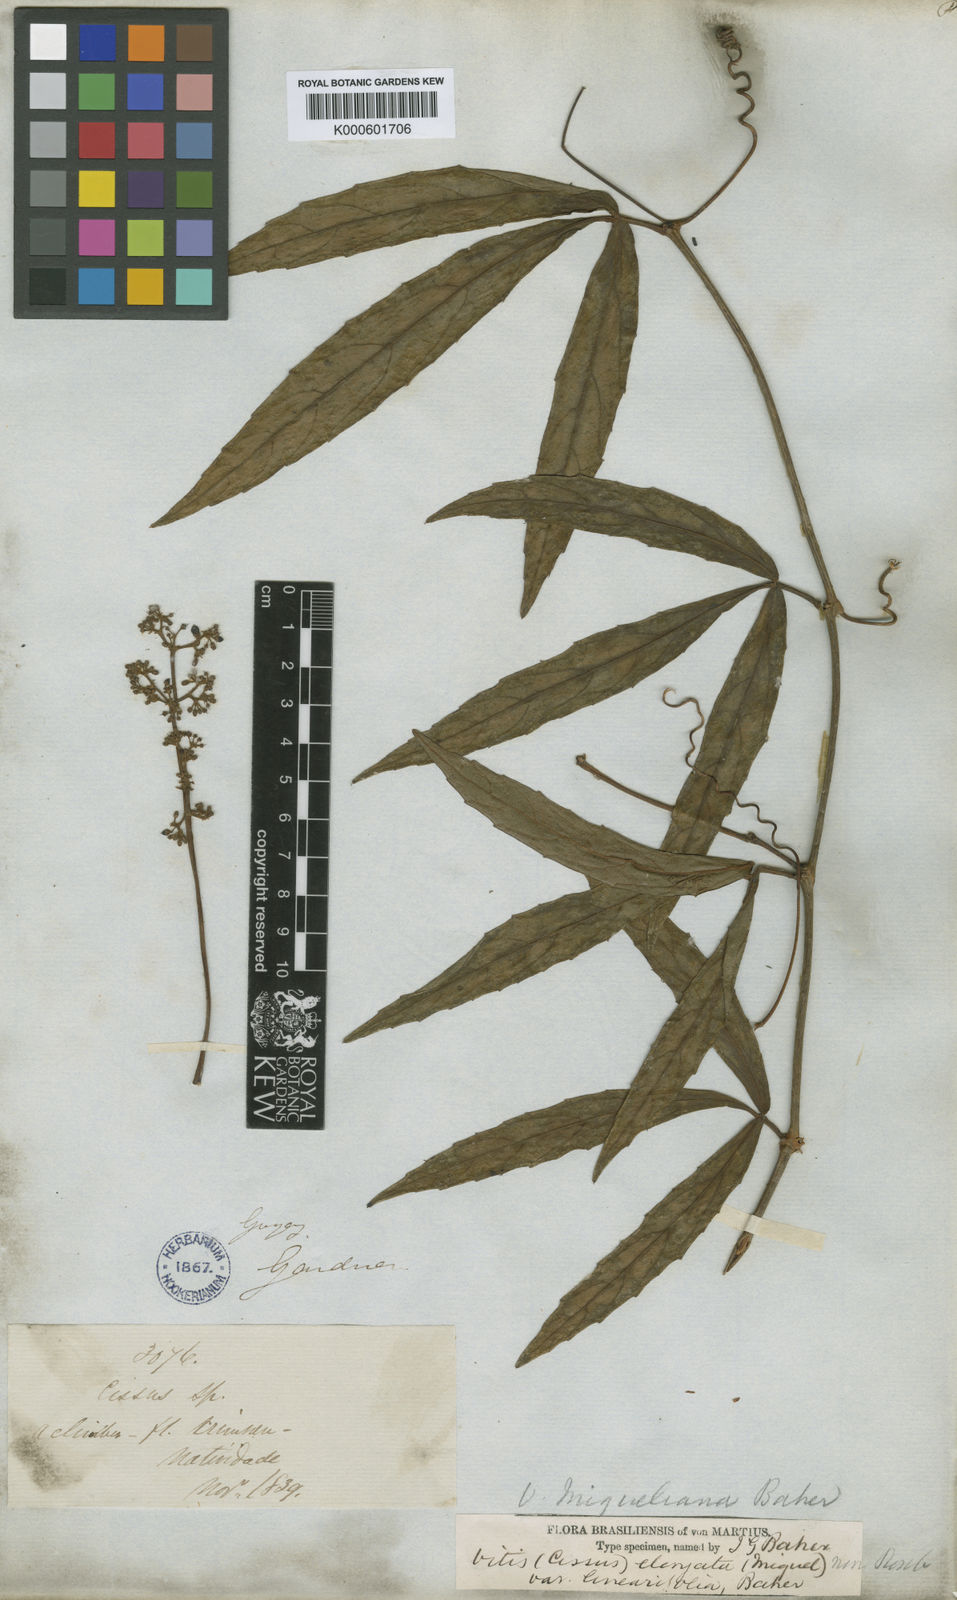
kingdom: Plantae
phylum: Tracheophyta
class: Magnoliopsida
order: Vitales
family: Vitaceae
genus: Cissus
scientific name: Cissus erosa
